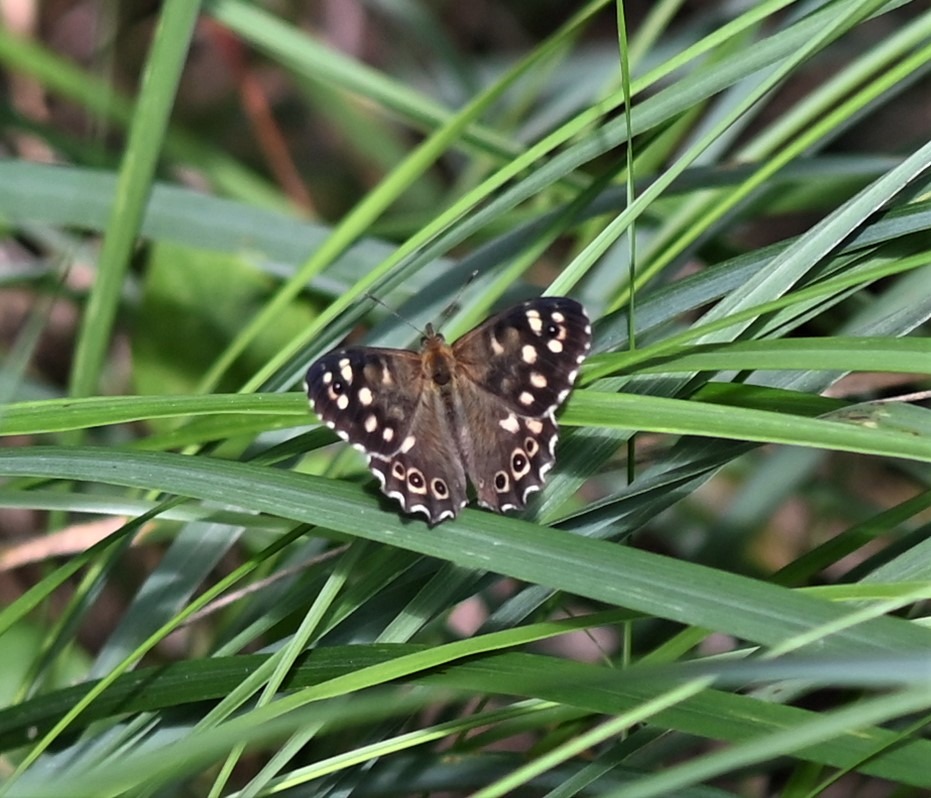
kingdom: Animalia
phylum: Arthropoda
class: Insecta
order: Lepidoptera
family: Nymphalidae
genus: Pararge
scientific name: Pararge aegeria
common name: Skovrandøje
